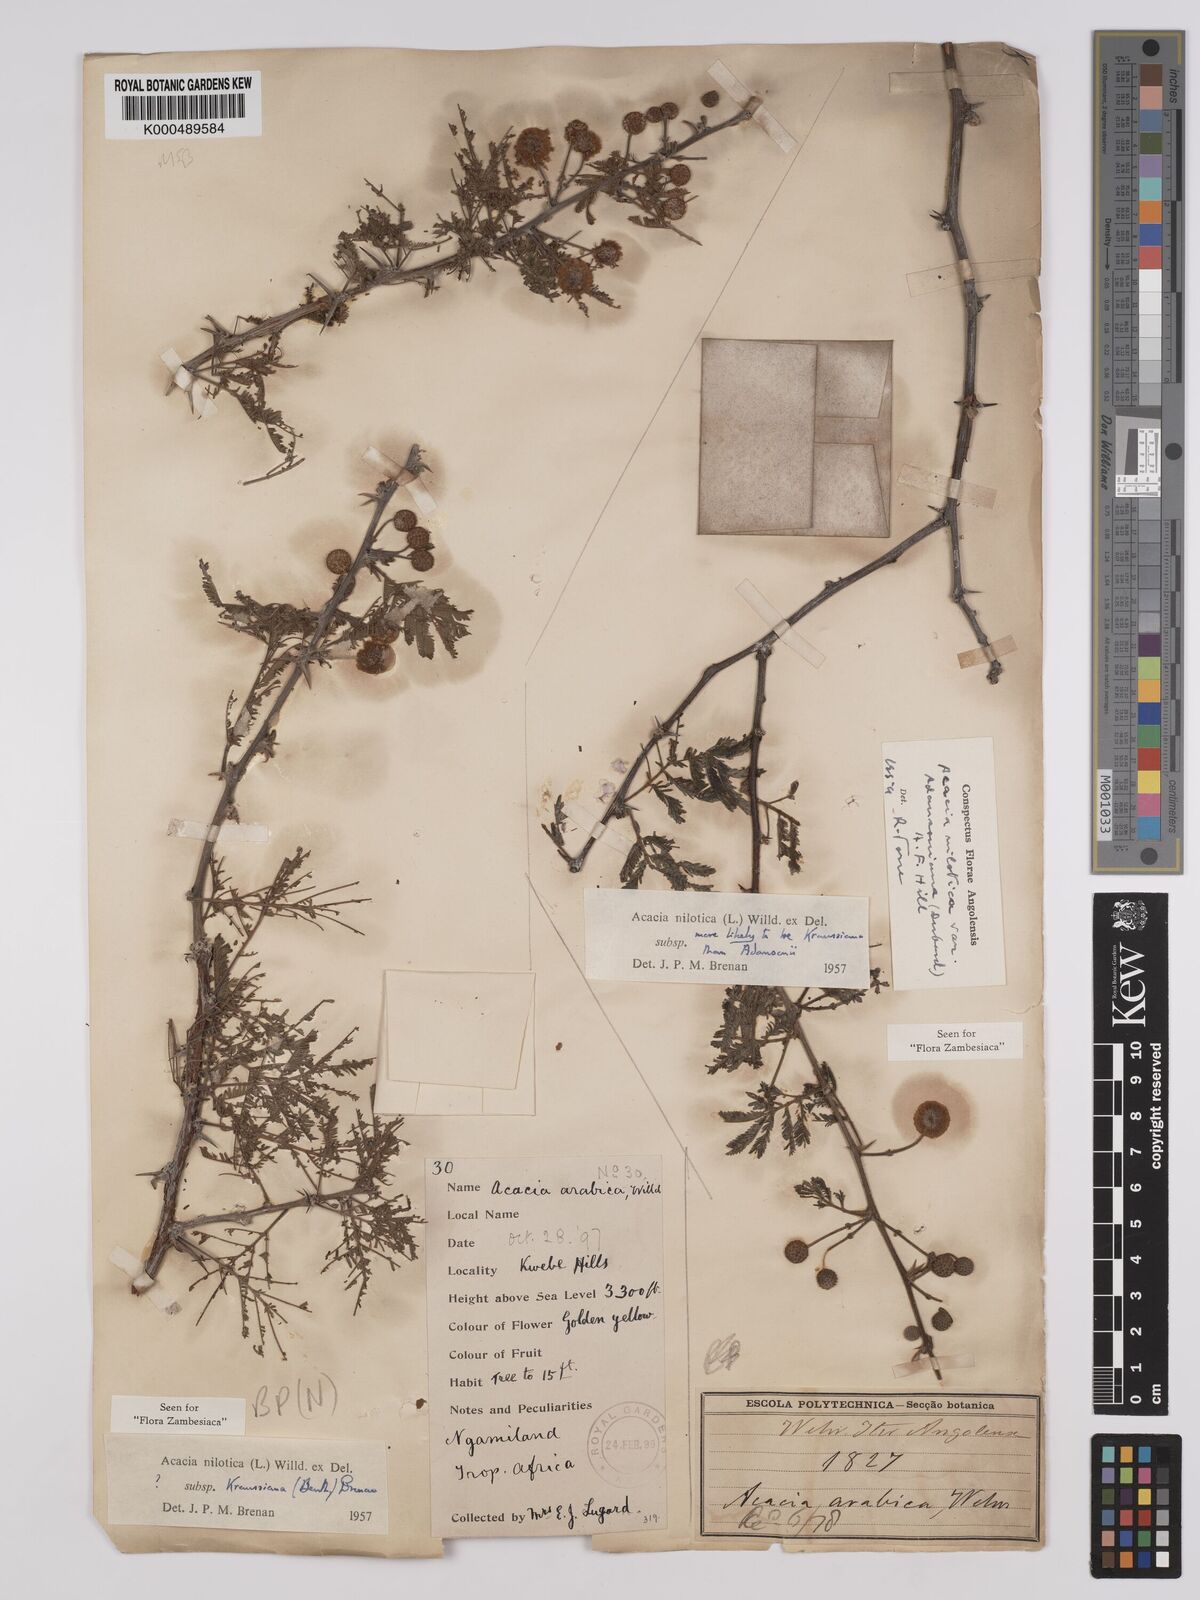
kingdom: Plantae
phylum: Tracheophyta
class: Magnoliopsida
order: Fabales
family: Fabaceae
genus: Vachellia
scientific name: Vachellia nilotica
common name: Arabic gumtree
